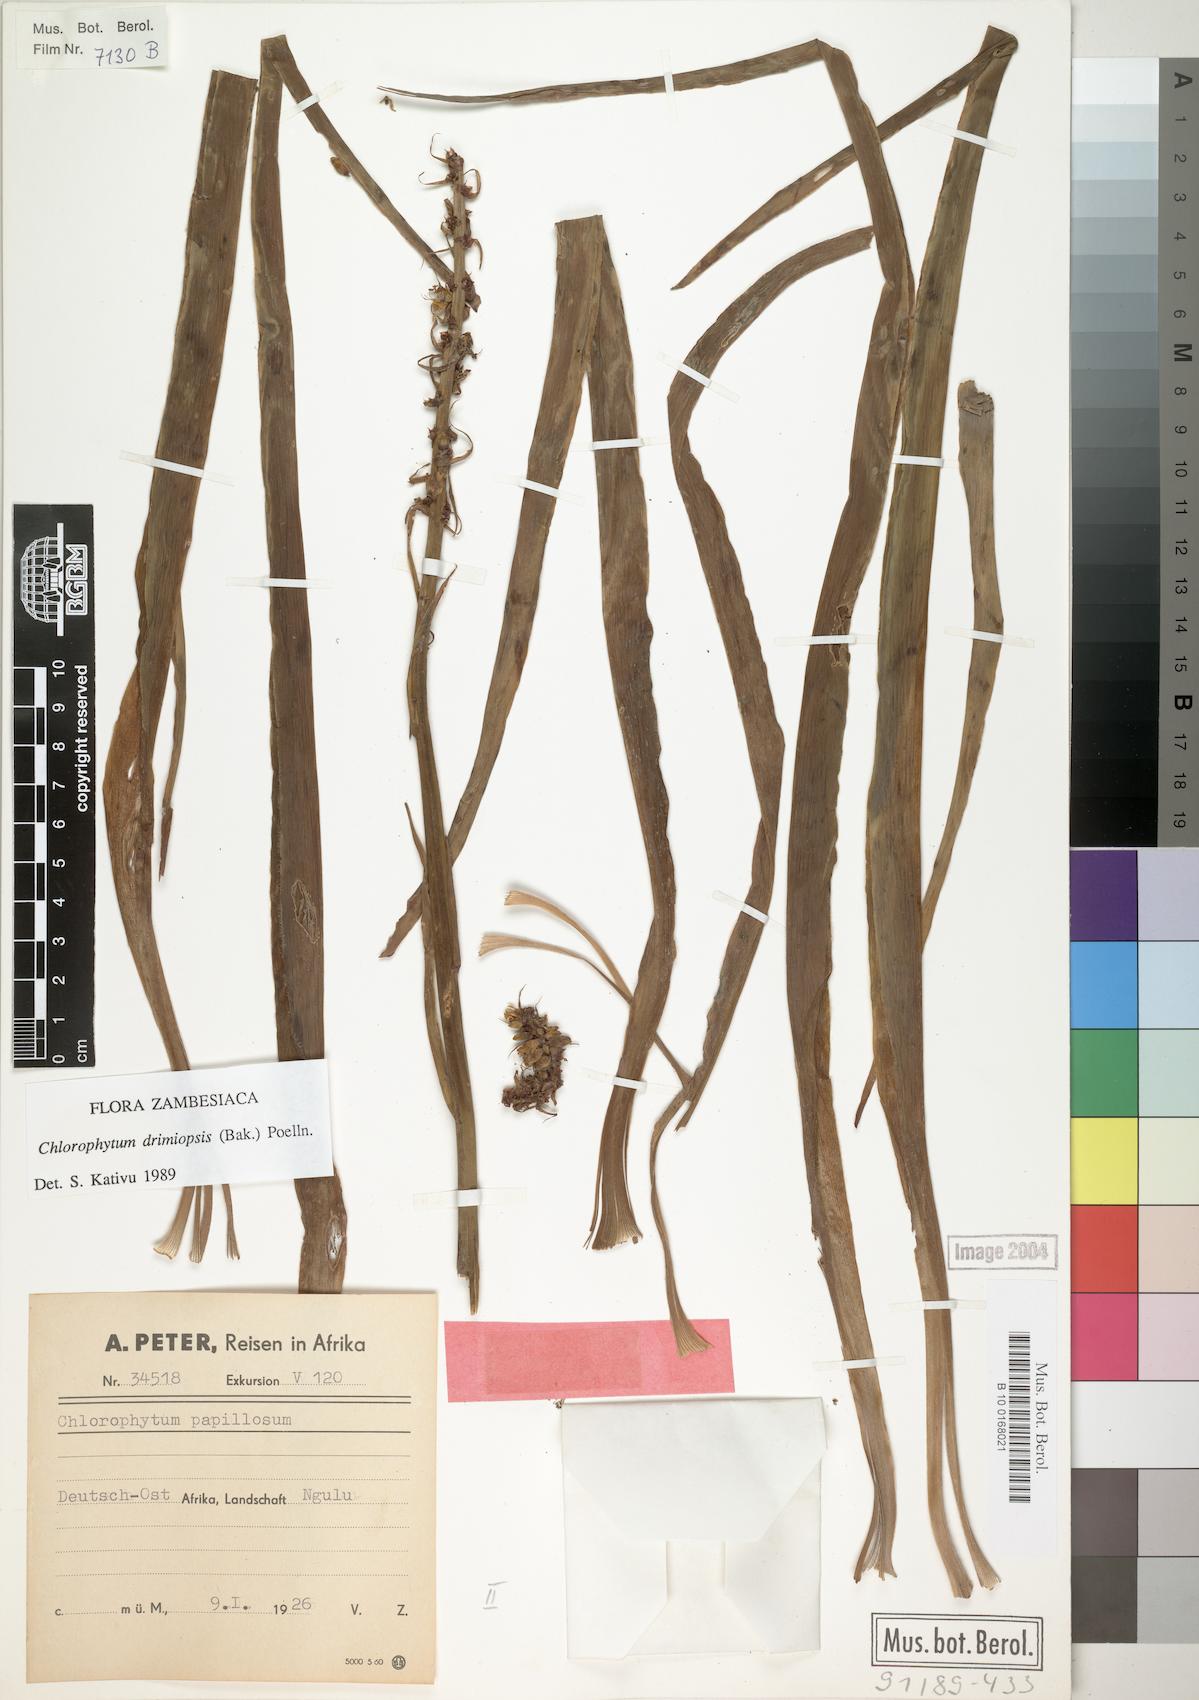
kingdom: Plantae
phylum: Tracheophyta
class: Liliopsida
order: Asparagales
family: Asparagaceae
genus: Chlorophytum
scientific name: Chlorophytum longifolium
